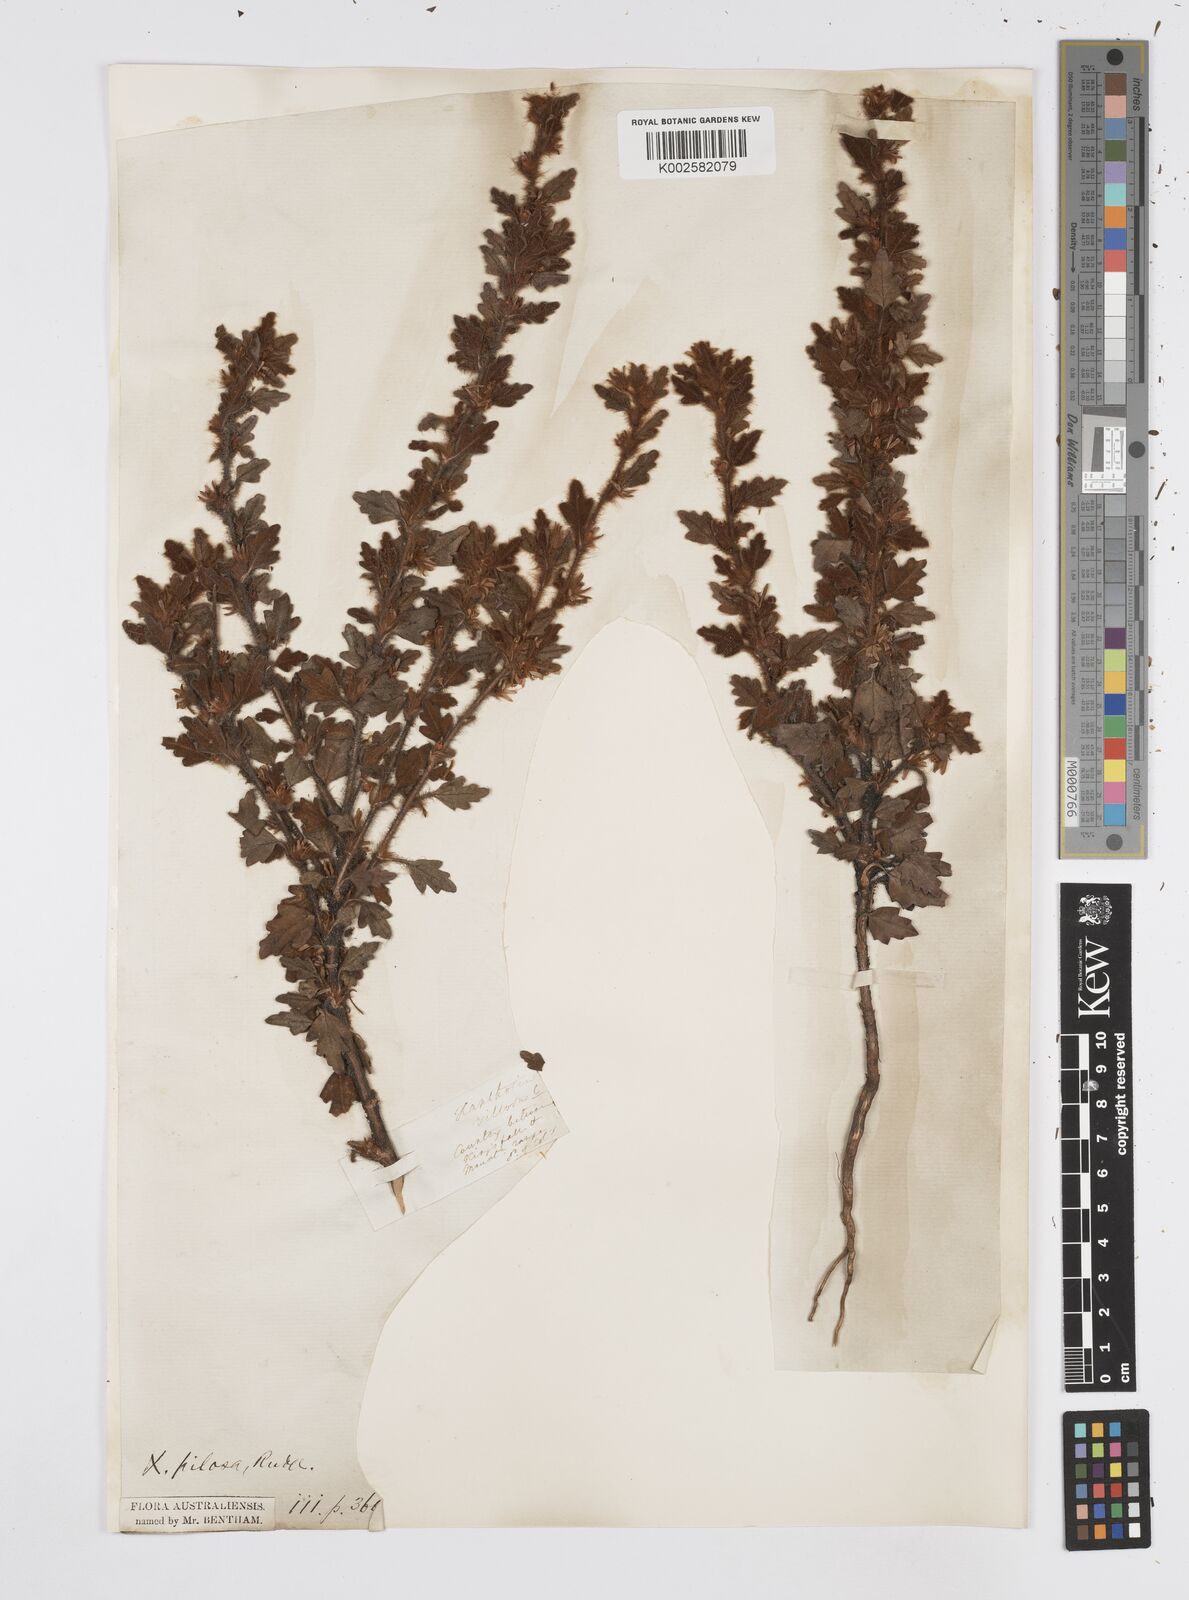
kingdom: Plantae
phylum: Tracheophyta
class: Magnoliopsida
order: Apiales
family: Apiaceae
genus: Xanthosia
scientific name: Xanthosia pilosa
